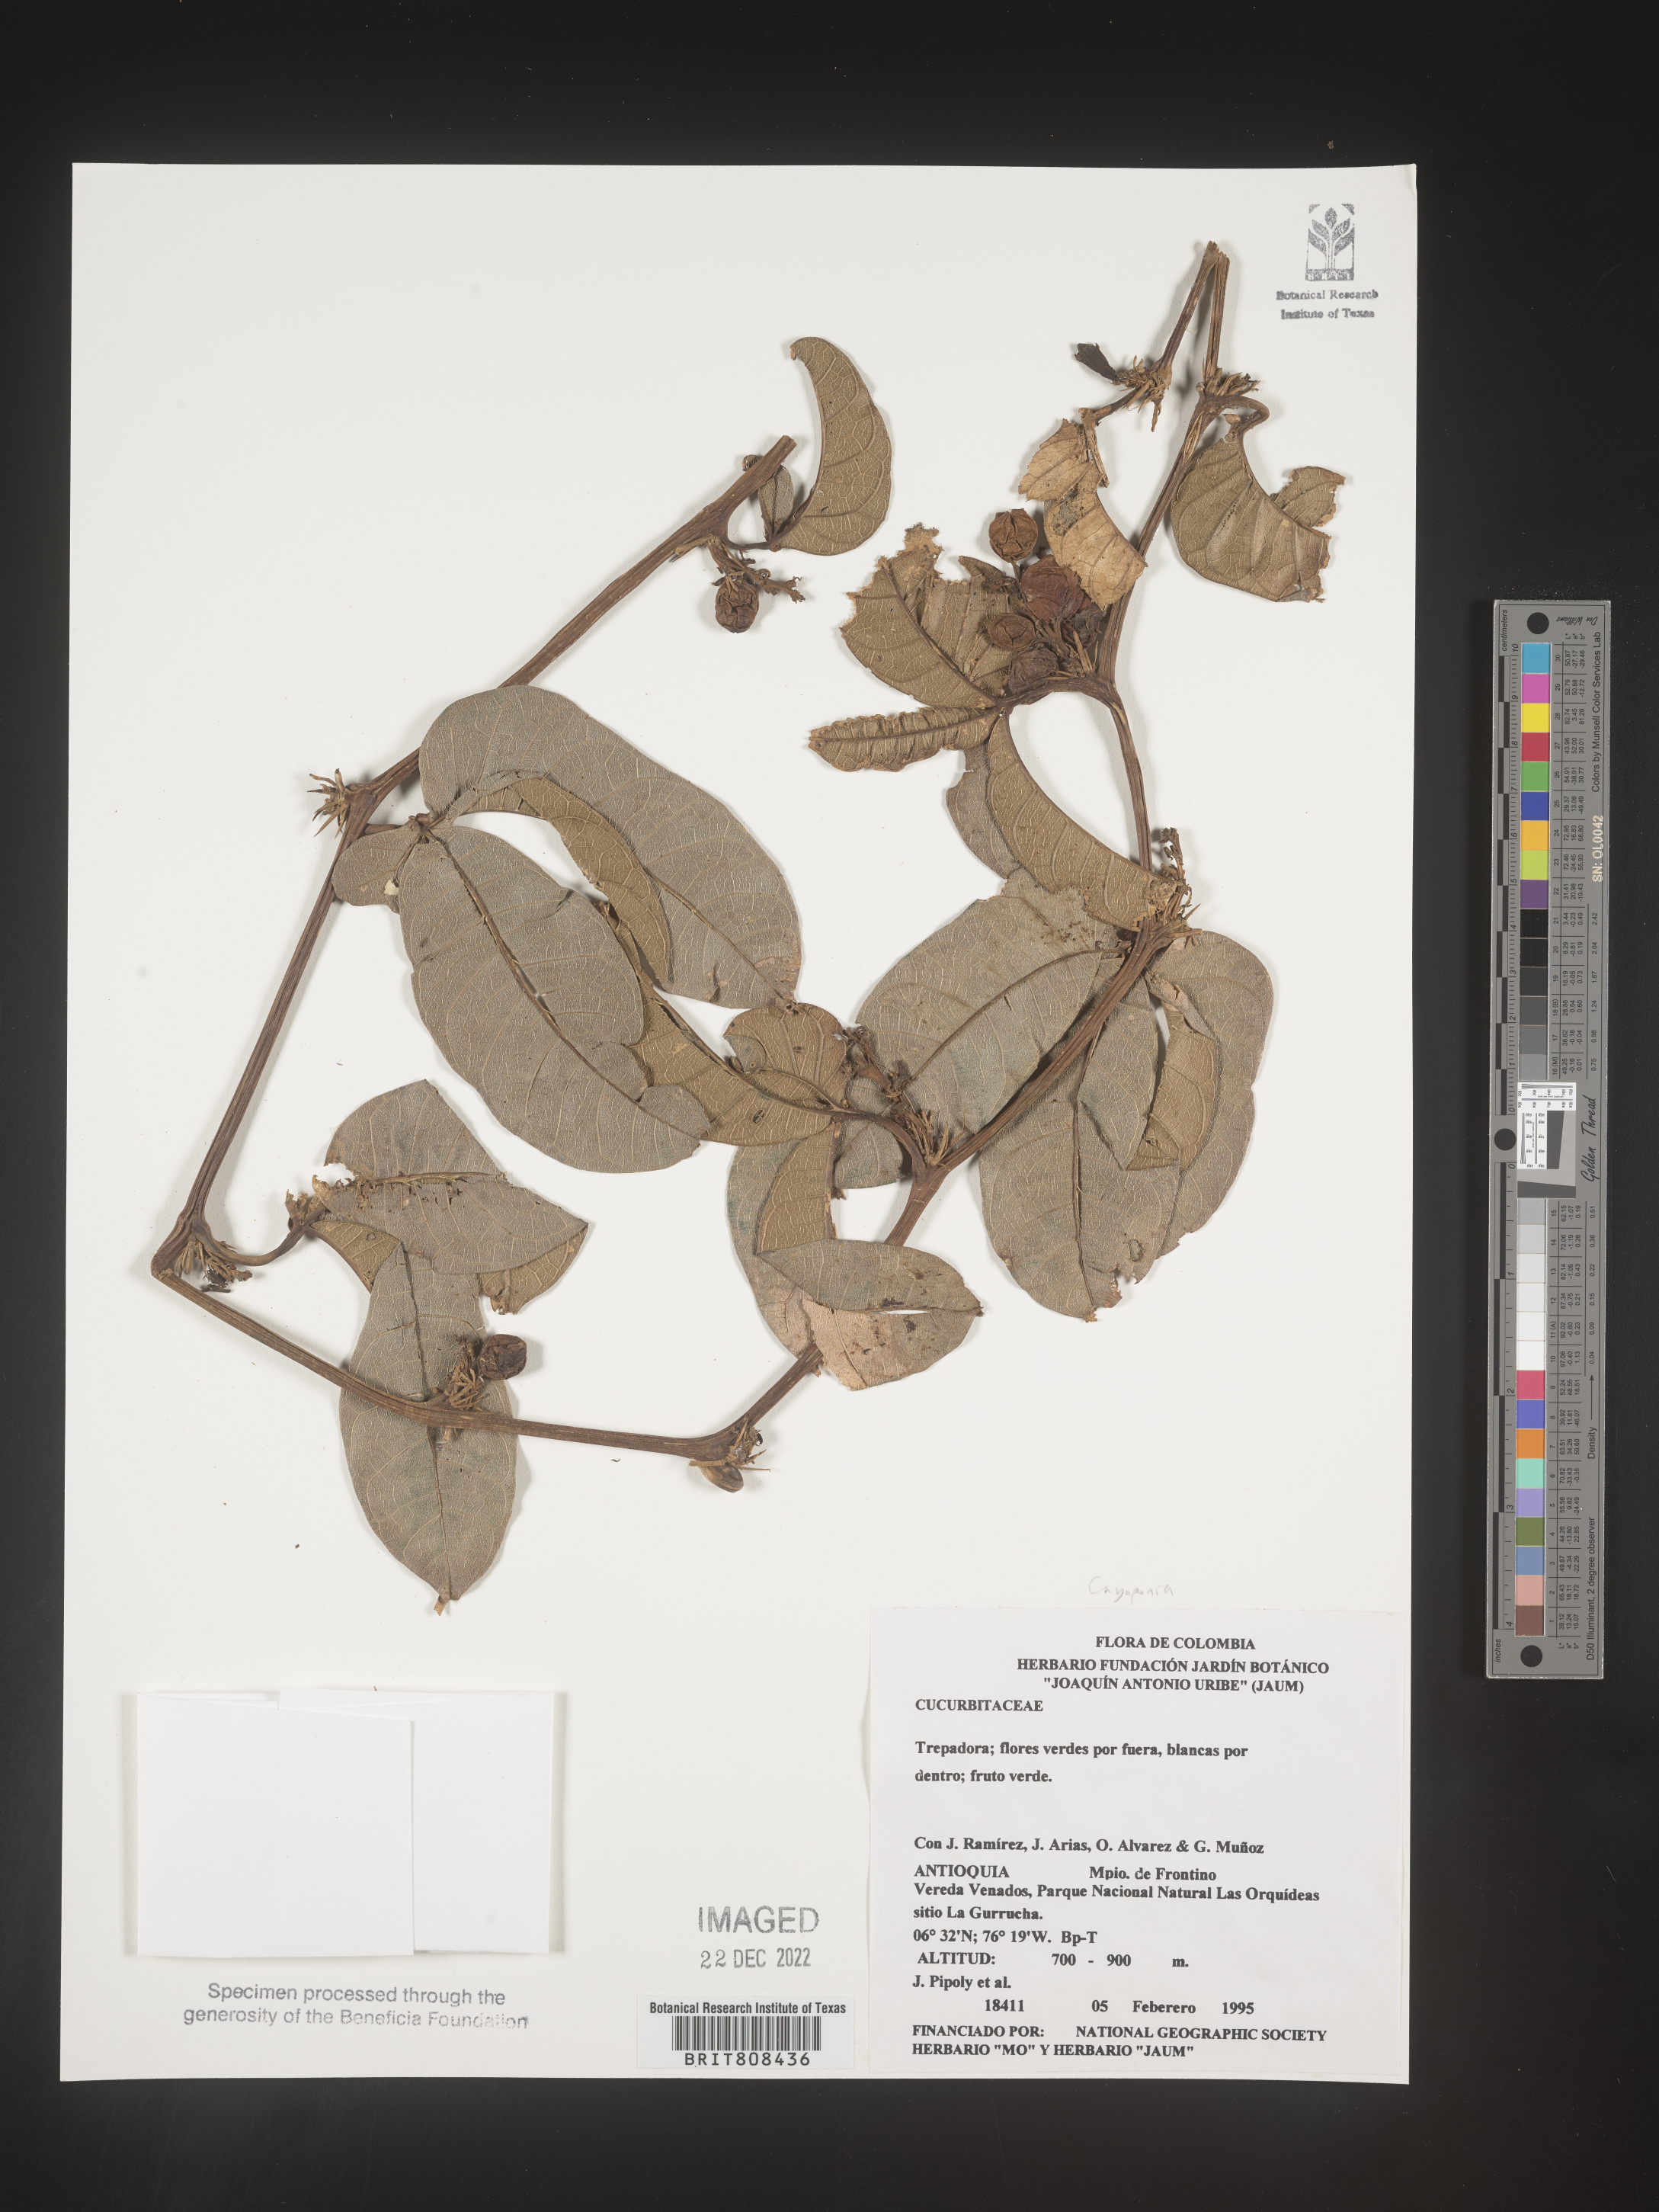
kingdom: Plantae
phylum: Tracheophyta
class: Magnoliopsida
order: Cucurbitales
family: Cucurbitaceae
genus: Cayaponia
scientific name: Cayaponia
